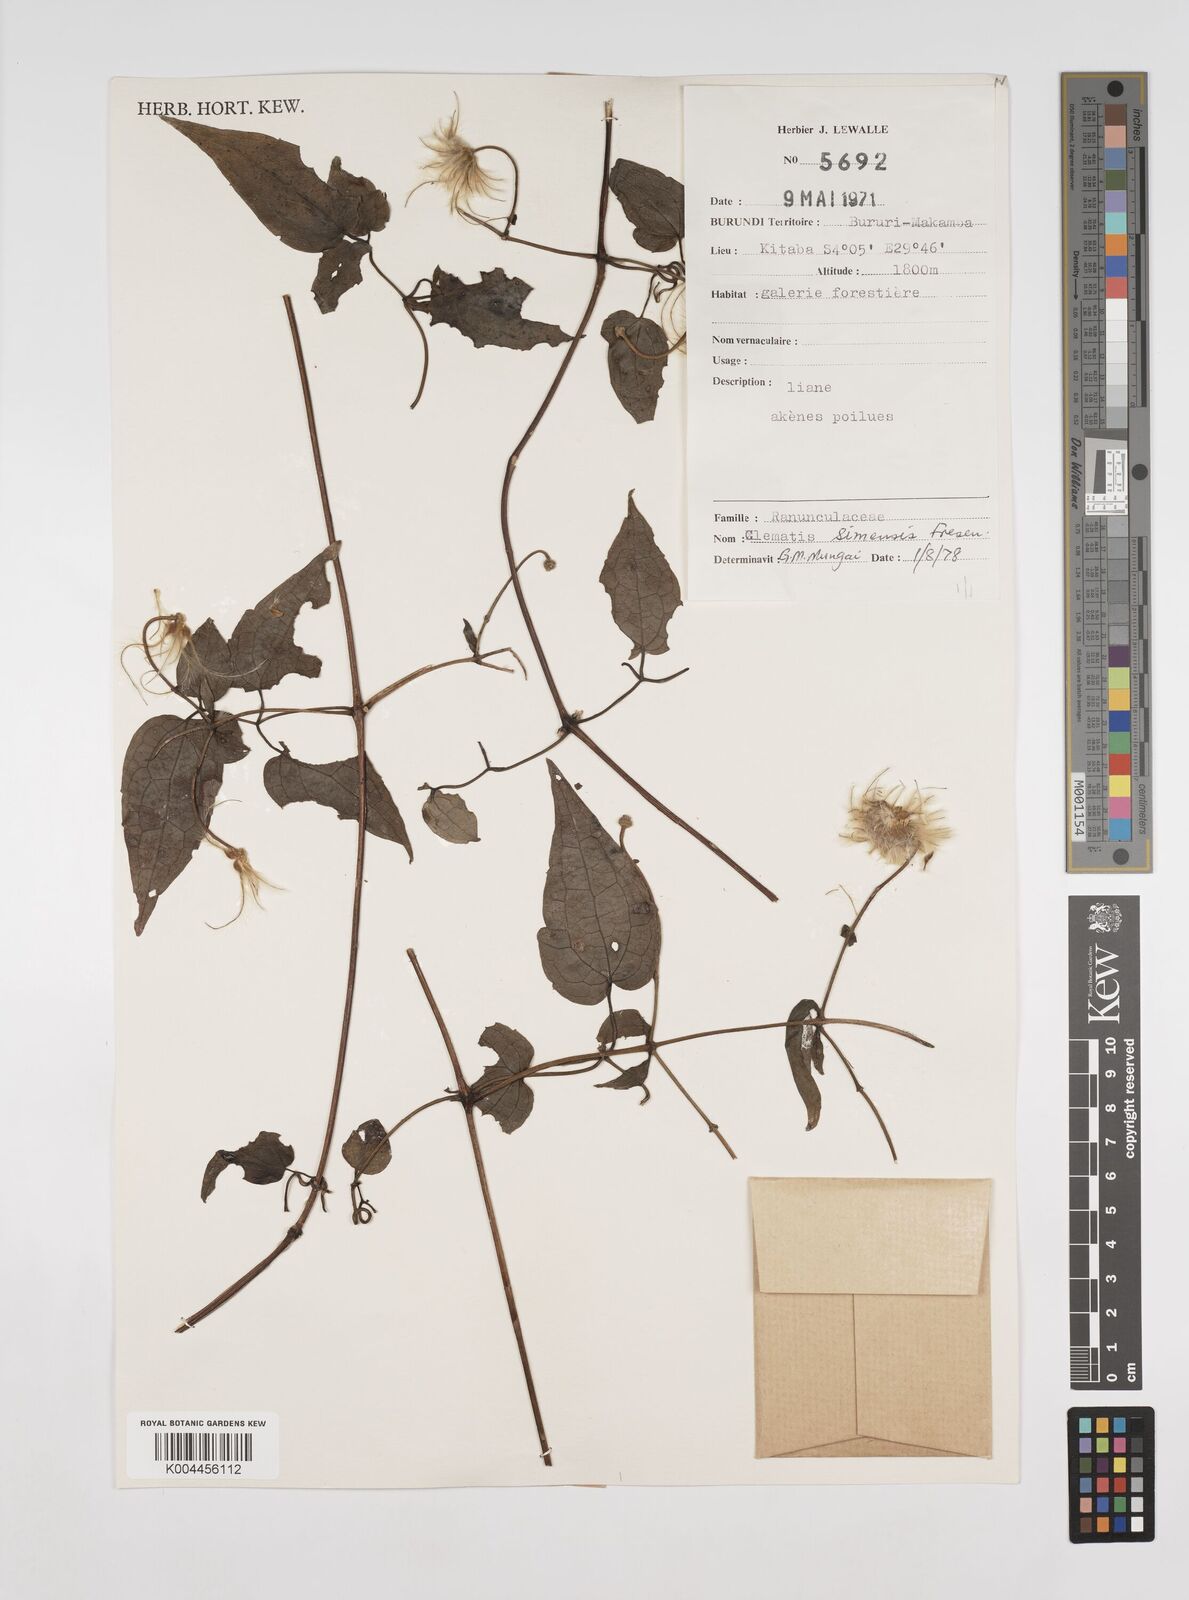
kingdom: Plantae
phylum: Tracheophyta
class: Magnoliopsida
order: Ranunculales
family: Ranunculaceae
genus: Clematis
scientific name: Clematis simensis
